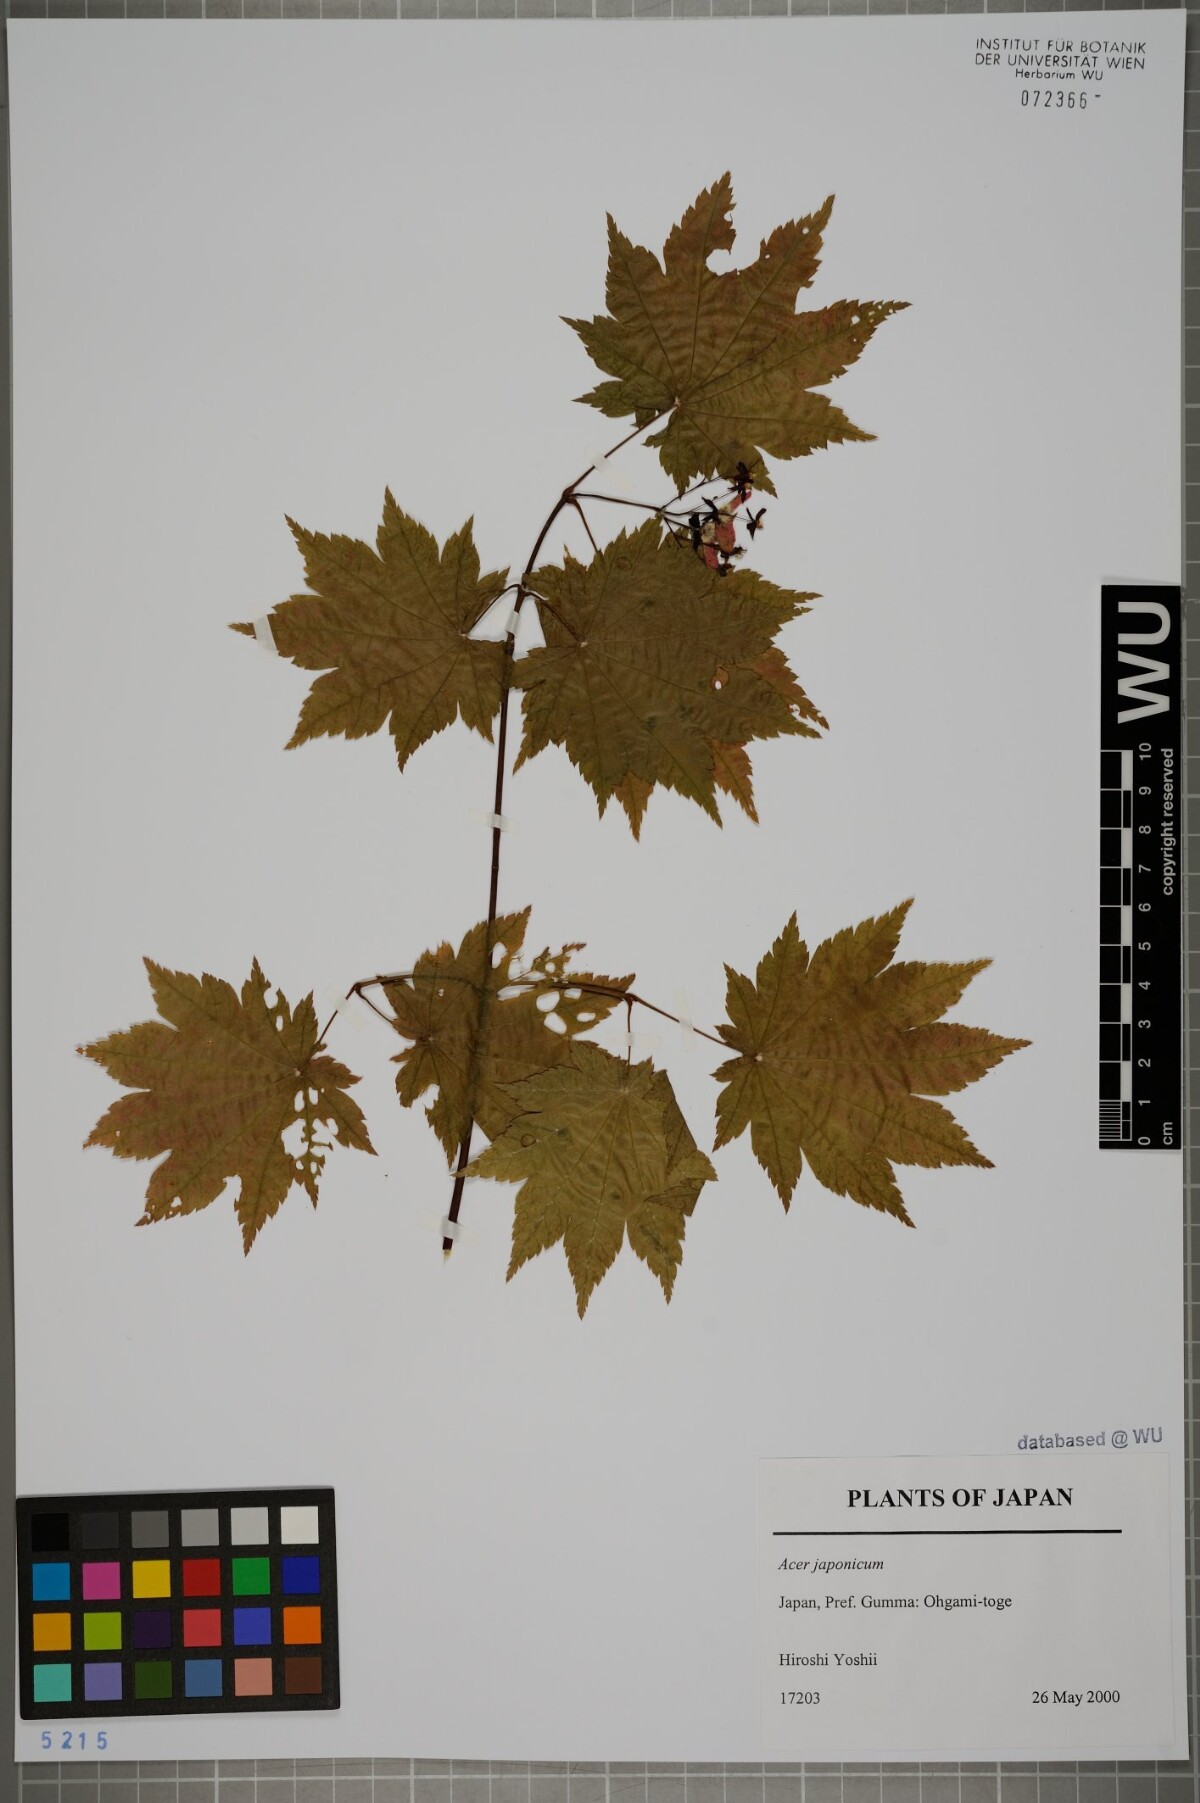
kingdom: Plantae
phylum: Tracheophyta
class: Magnoliopsida
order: Sapindales
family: Sapindaceae
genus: Acer
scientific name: Acer japonicum
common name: Amur maple
